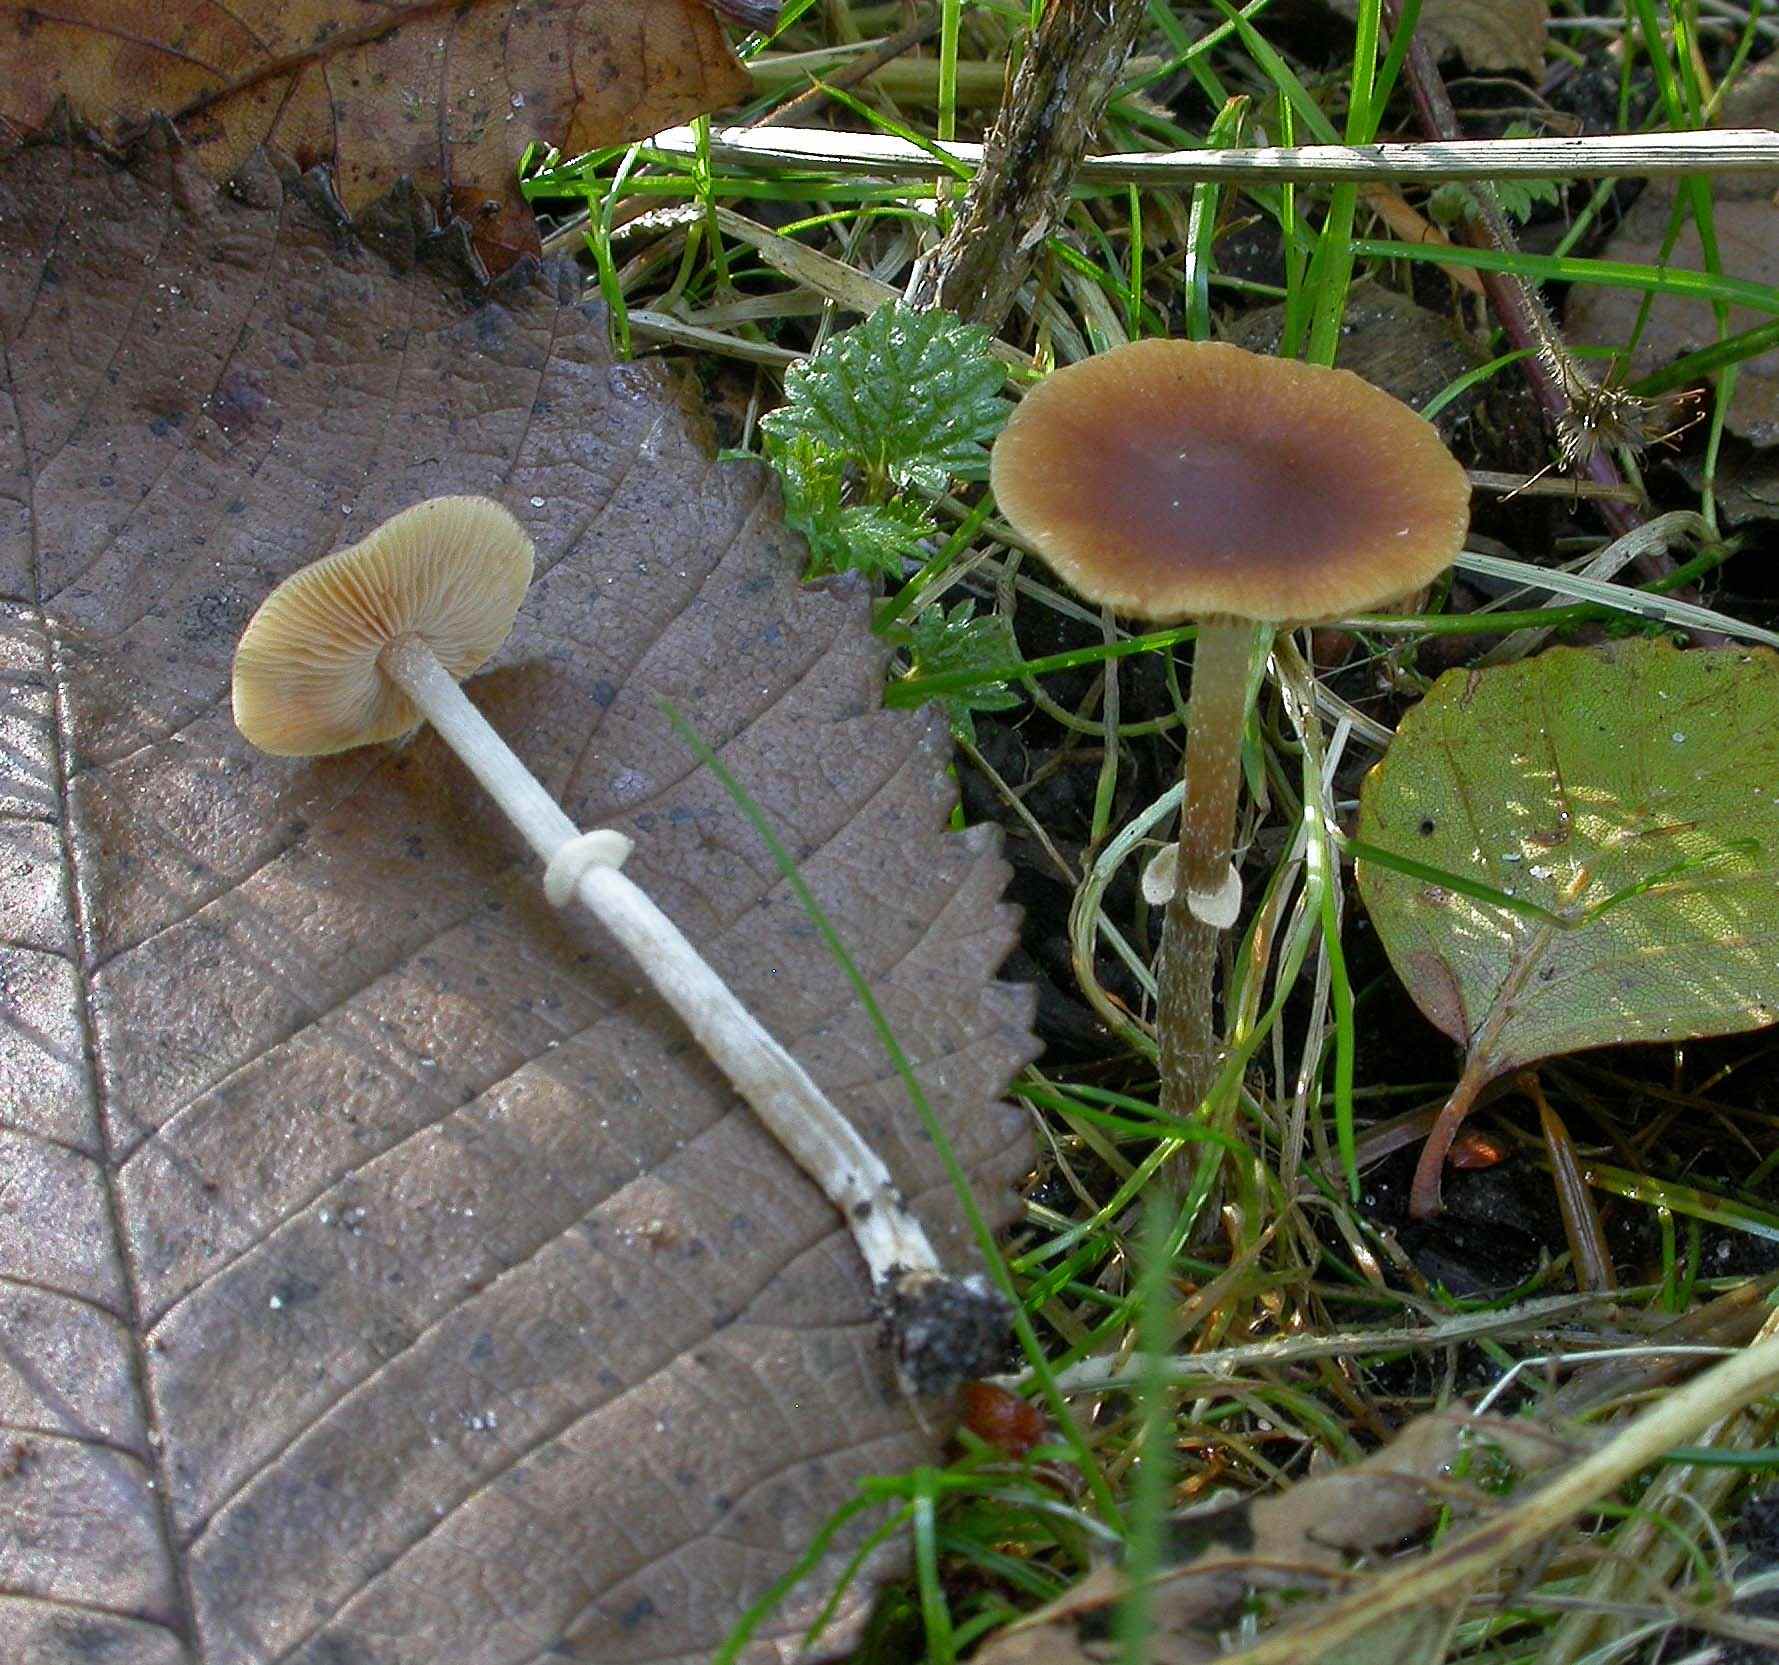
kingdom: Fungi
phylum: Basidiomycota
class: Agaricomycetes
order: Agaricales
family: Bolbitiaceae
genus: Conocybe
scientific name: Conocybe arrhenii
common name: ring-dansehat
